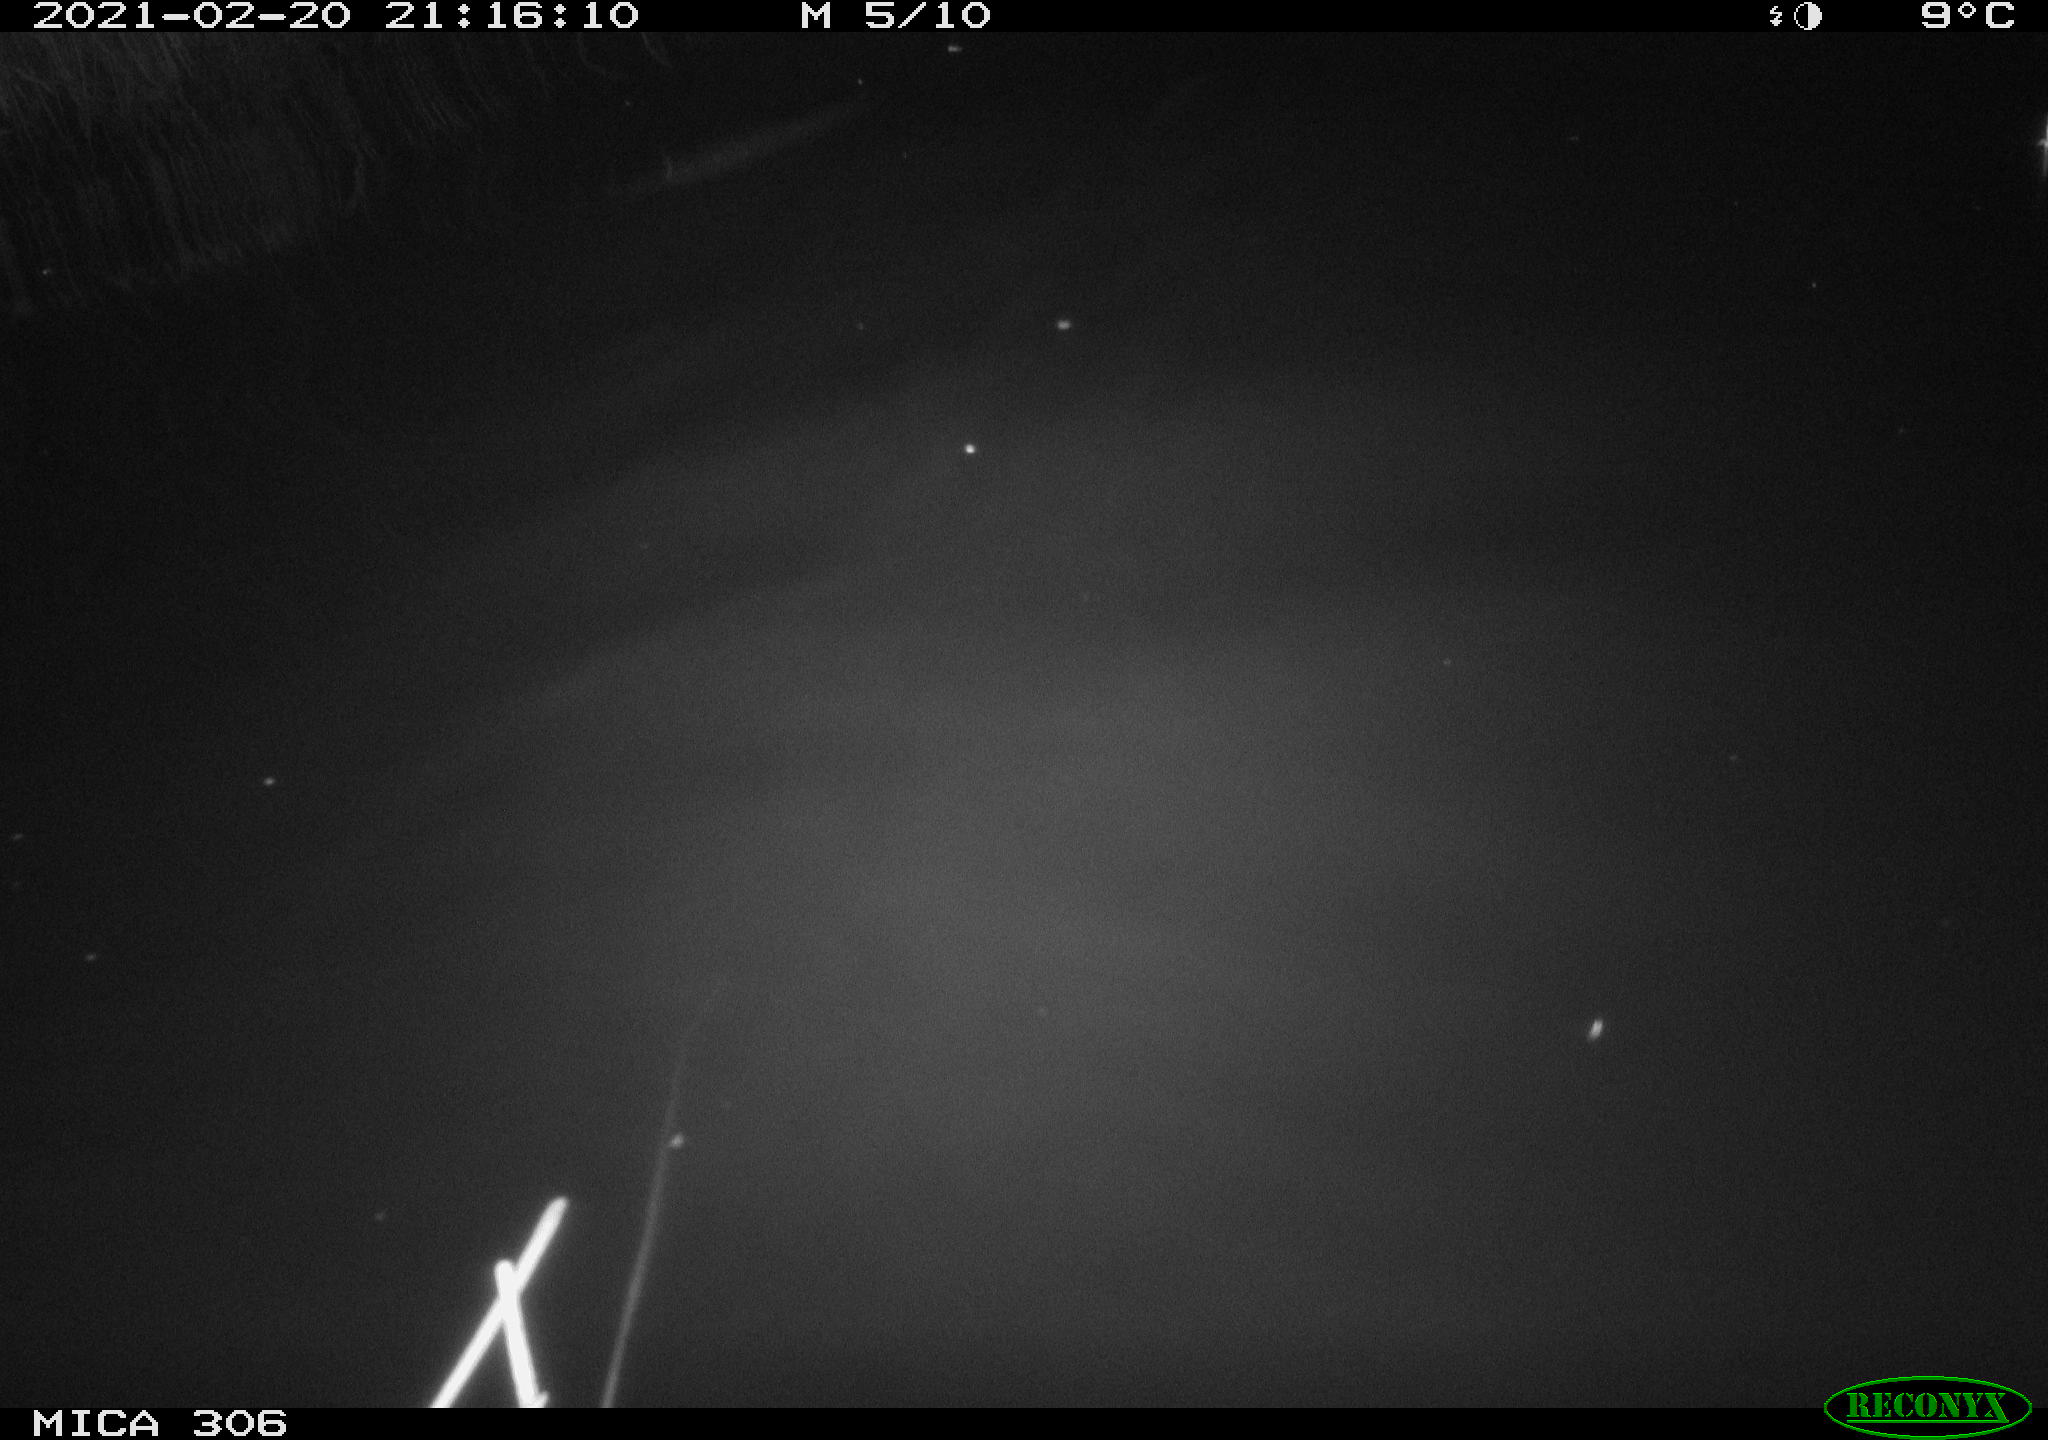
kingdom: Animalia
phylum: Chordata
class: Mammalia
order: Rodentia
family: Cricetidae
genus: Ondatra
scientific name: Ondatra zibethicus
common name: Muskrat
